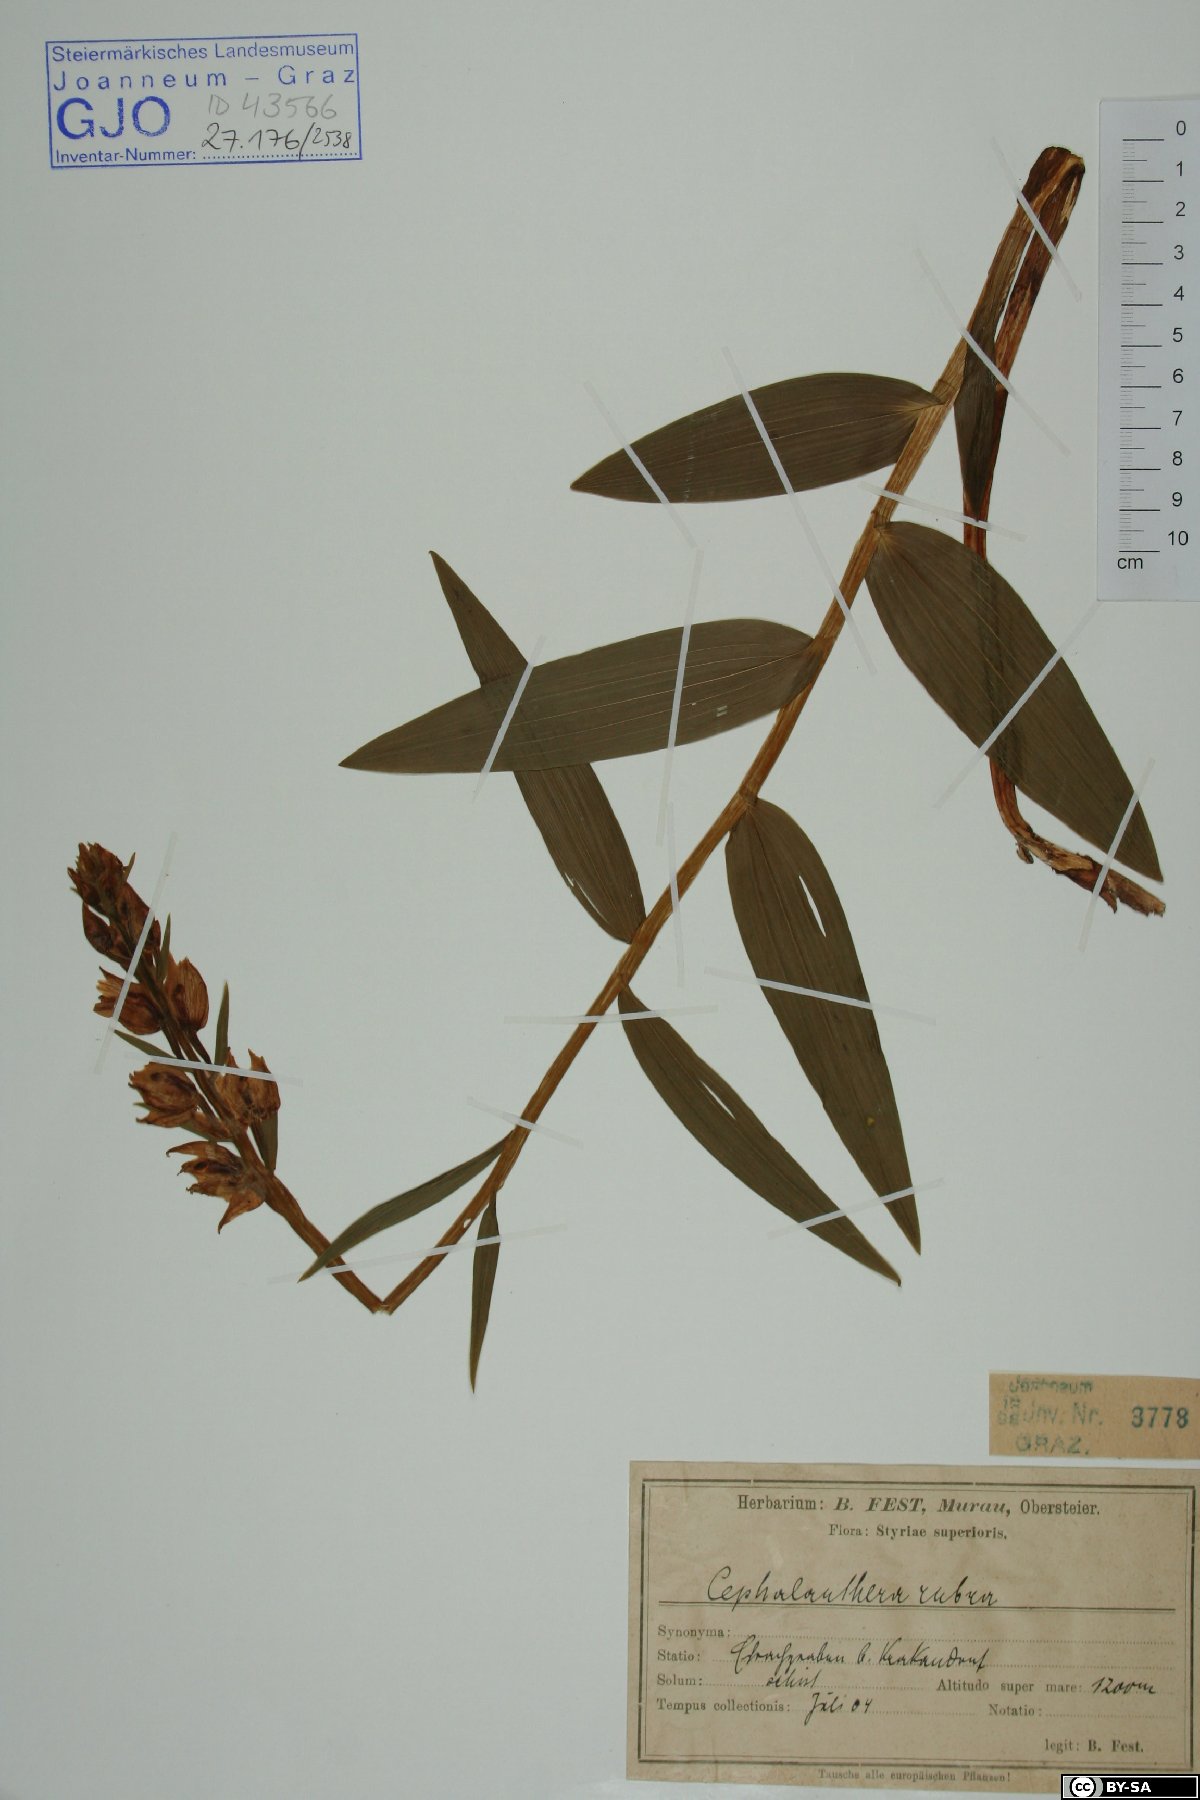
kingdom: Plantae
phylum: Tracheophyta
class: Liliopsida
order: Asparagales
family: Orchidaceae
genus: Cephalanthera
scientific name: Cephalanthera rubra
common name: Red helleborine
